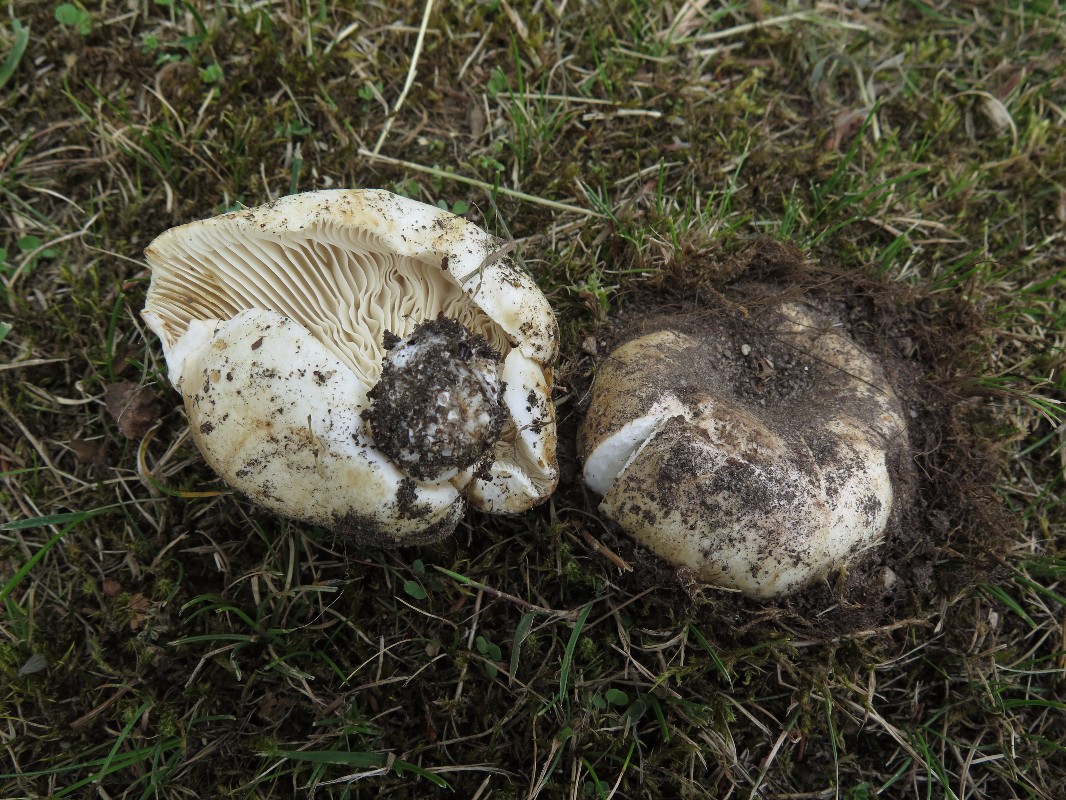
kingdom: Fungi
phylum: Basidiomycota
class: Agaricomycetes
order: Russulales
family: Russulaceae
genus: Russula
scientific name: Russula delica
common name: almindelig tragt-skørhat
